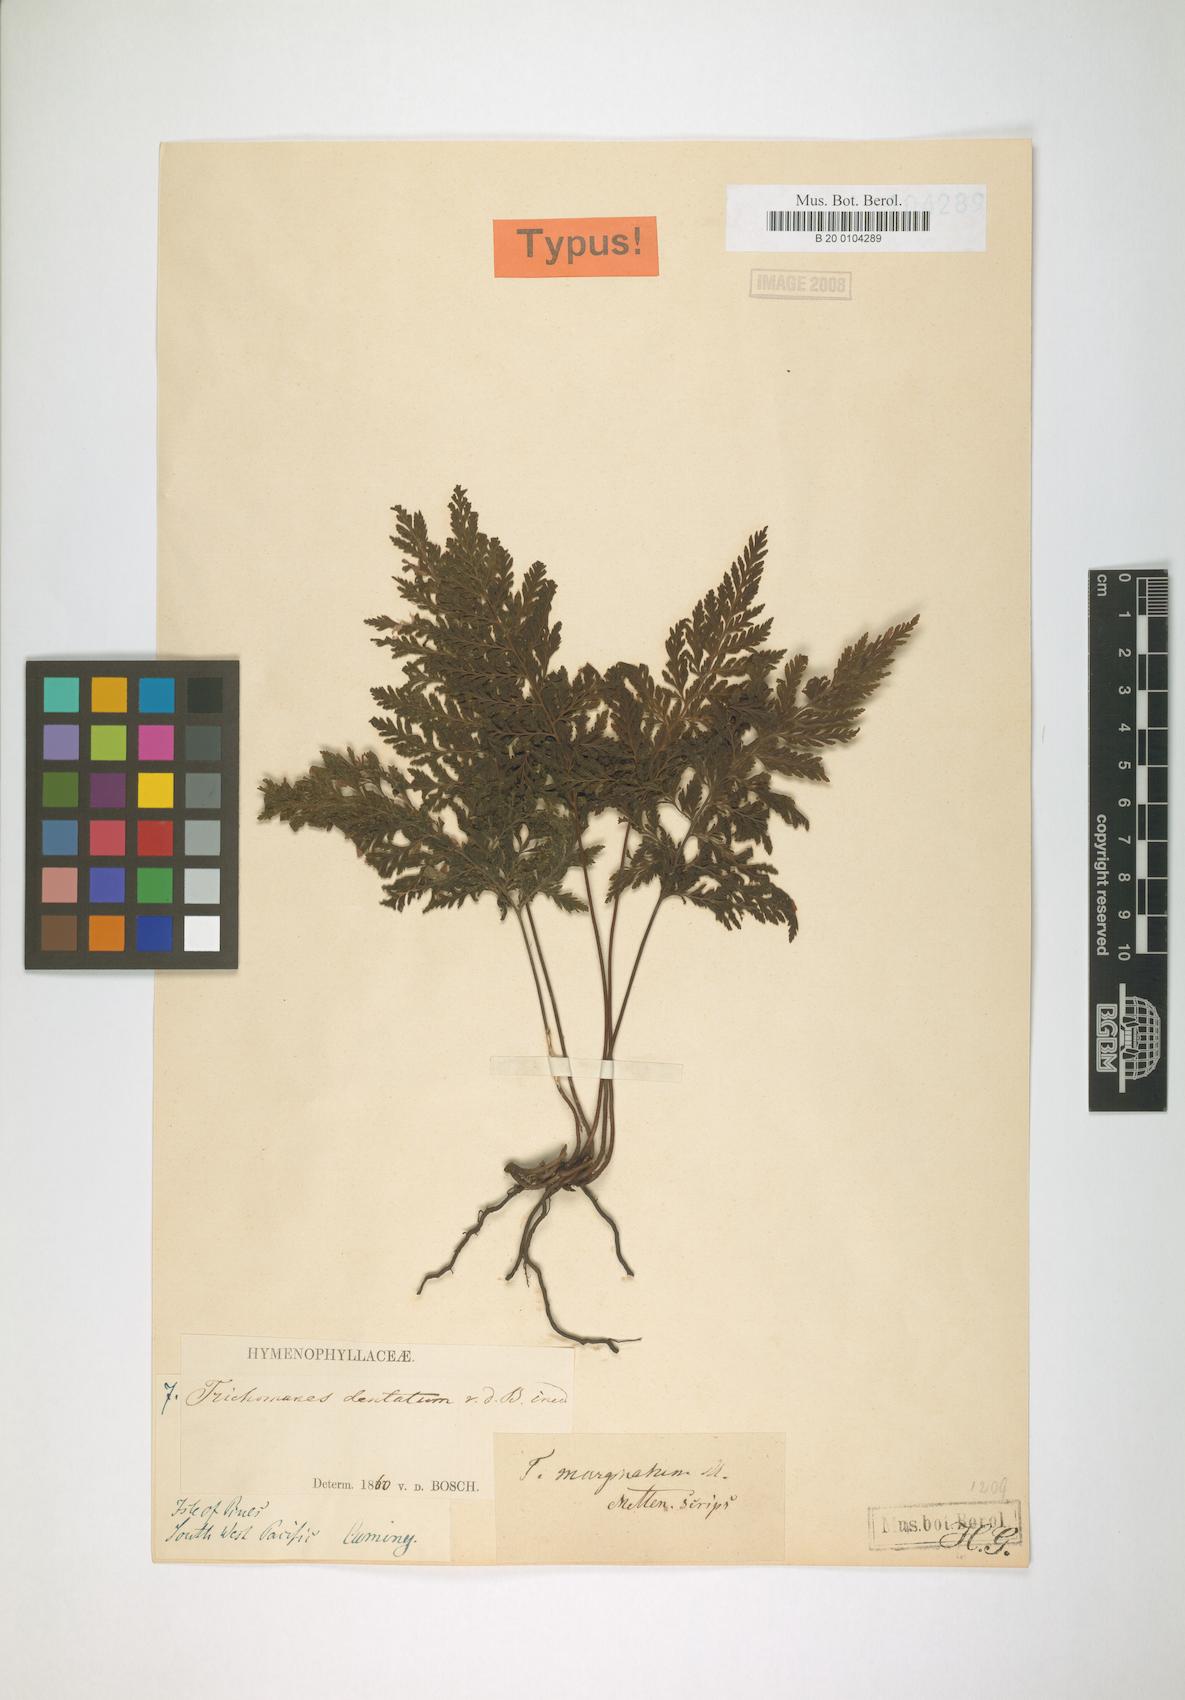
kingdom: Plantae
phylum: Tracheophyta
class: Polypodiopsida
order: Hymenophyllales
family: Hymenophyllaceae
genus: Abrodictyum
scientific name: Abrodictyum dentatum
